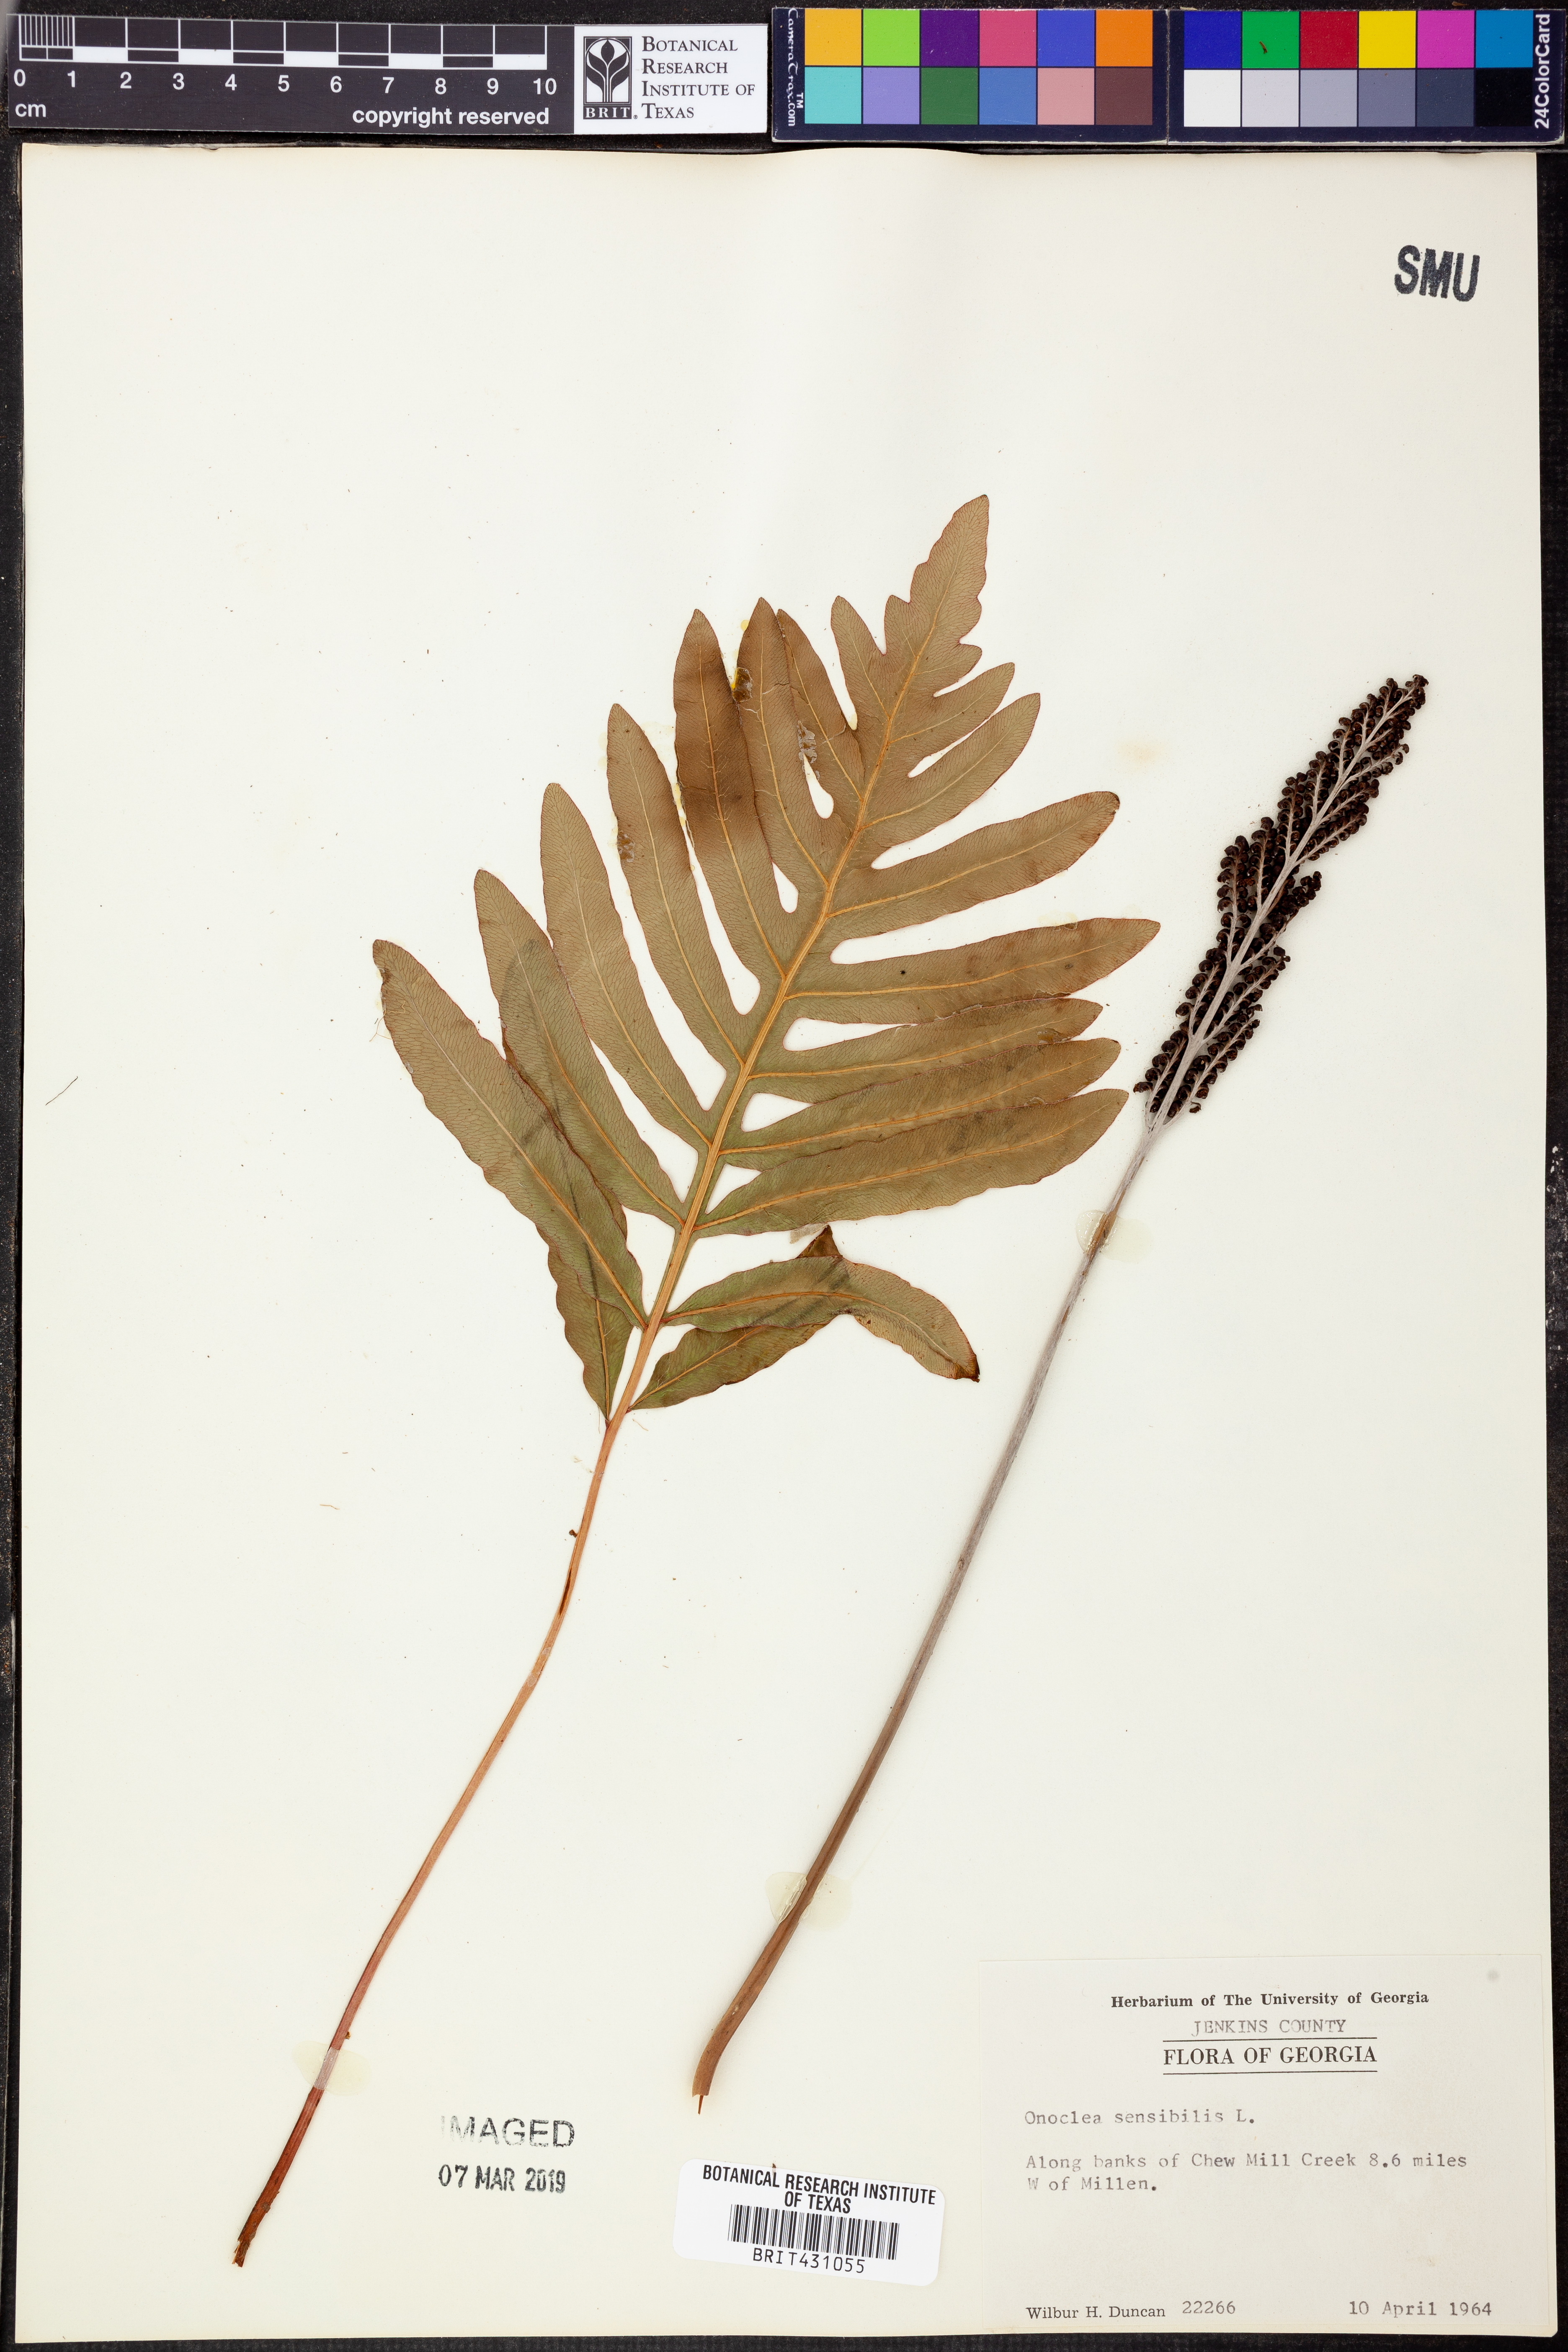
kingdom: Plantae
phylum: Tracheophyta
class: Polypodiopsida
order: Polypodiales
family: Onocleaceae
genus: Onoclea
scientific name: Onoclea sensibilis
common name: Sensitive fern
